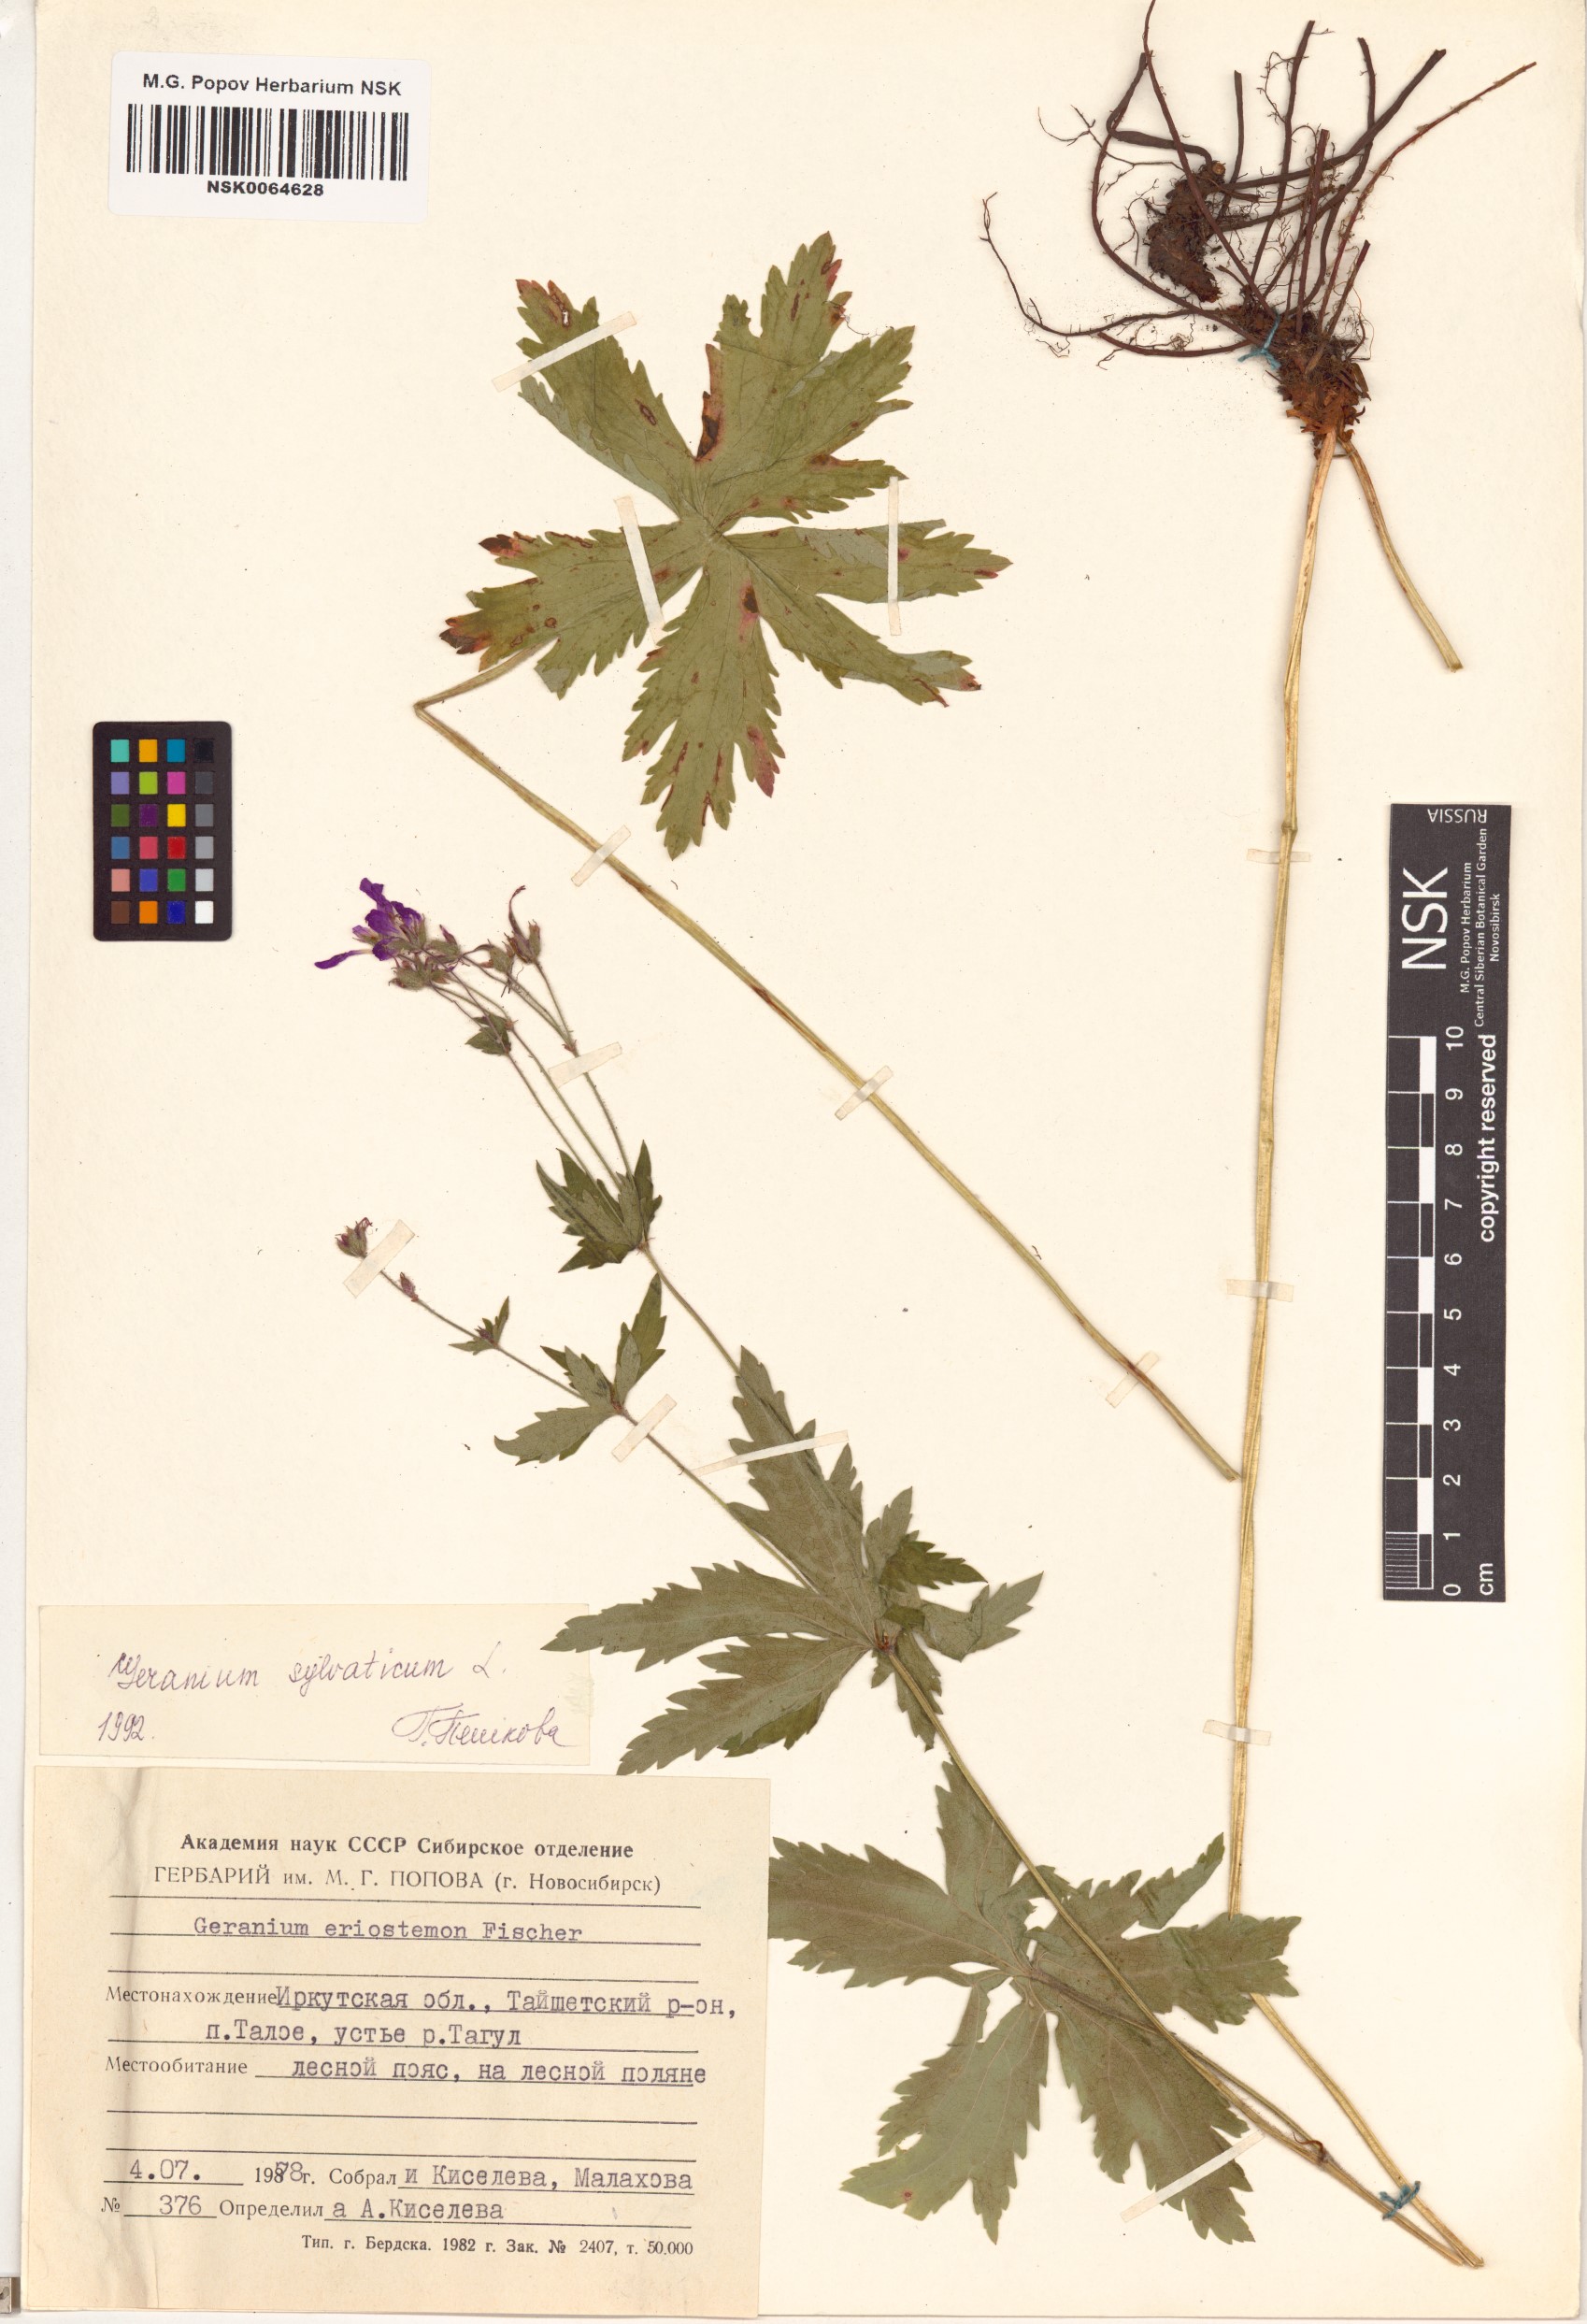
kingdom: Plantae
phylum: Tracheophyta
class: Magnoliopsida
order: Geraniales
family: Geraniaceae
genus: Geranium
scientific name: Geranium sylvaticum
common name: Wood crane's-bill
